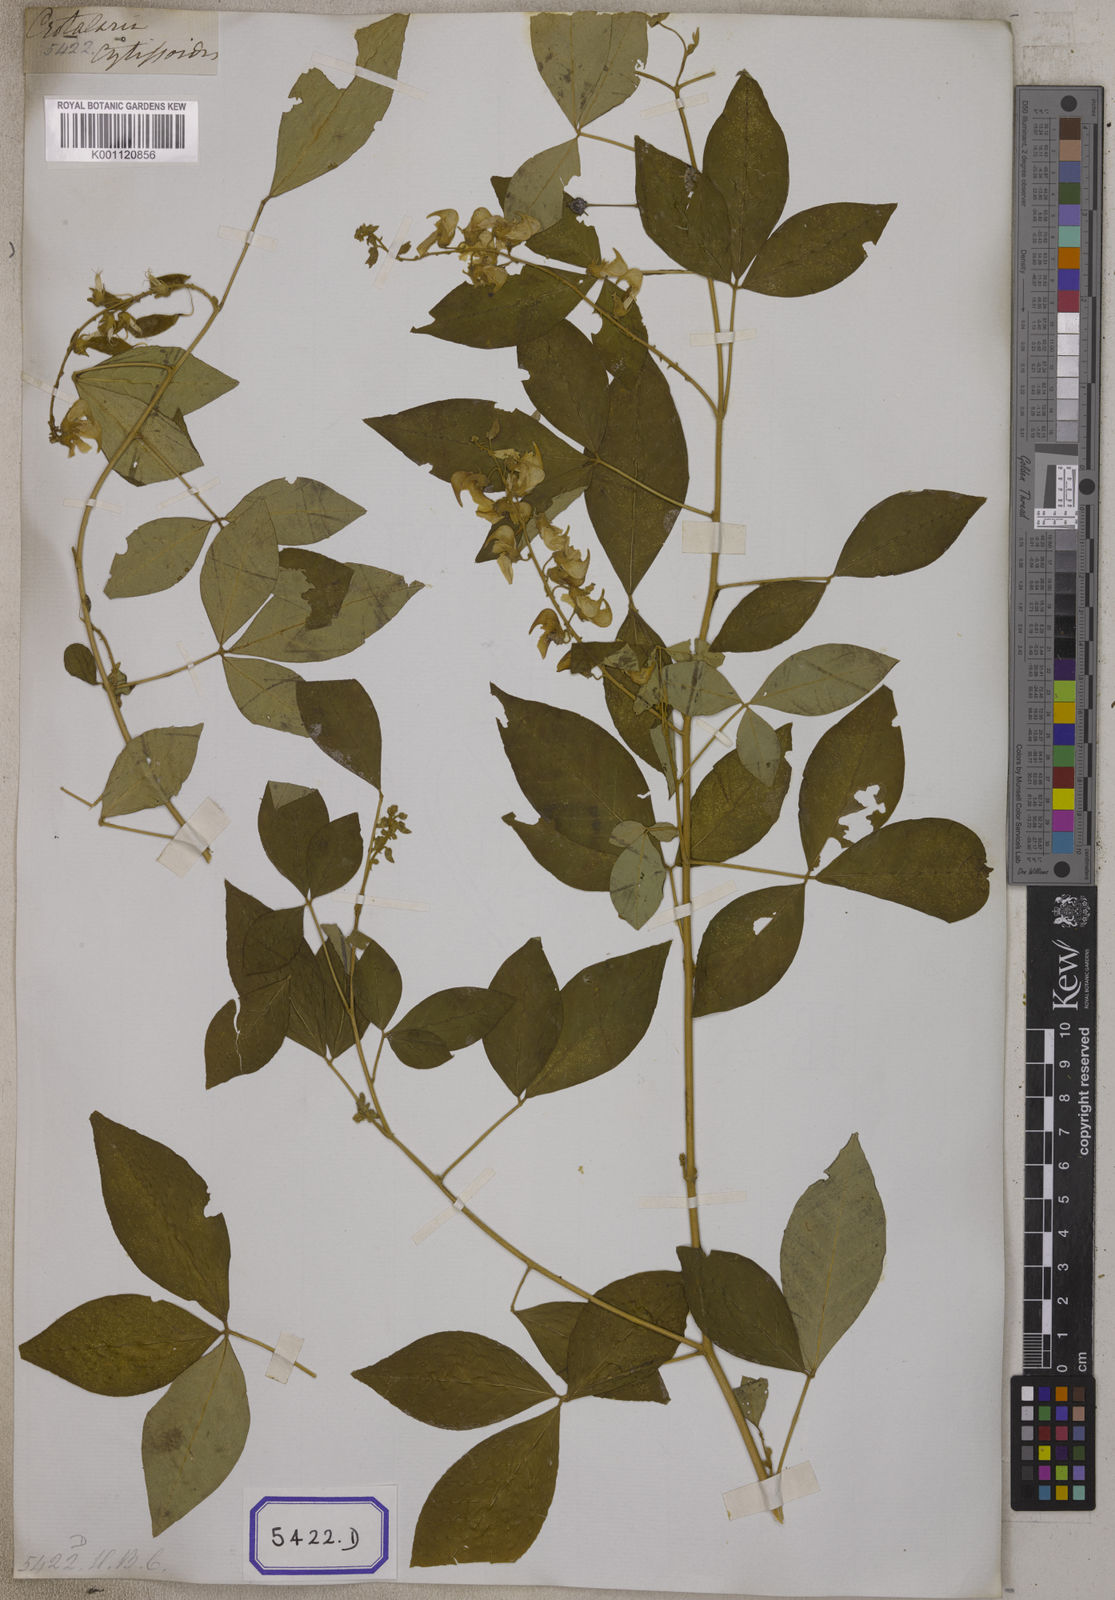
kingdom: Plantae
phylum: Tracheophyta
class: Magnoliopsida
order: Fabales
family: Fabaceae
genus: Crotalaria
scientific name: Crotalaria
